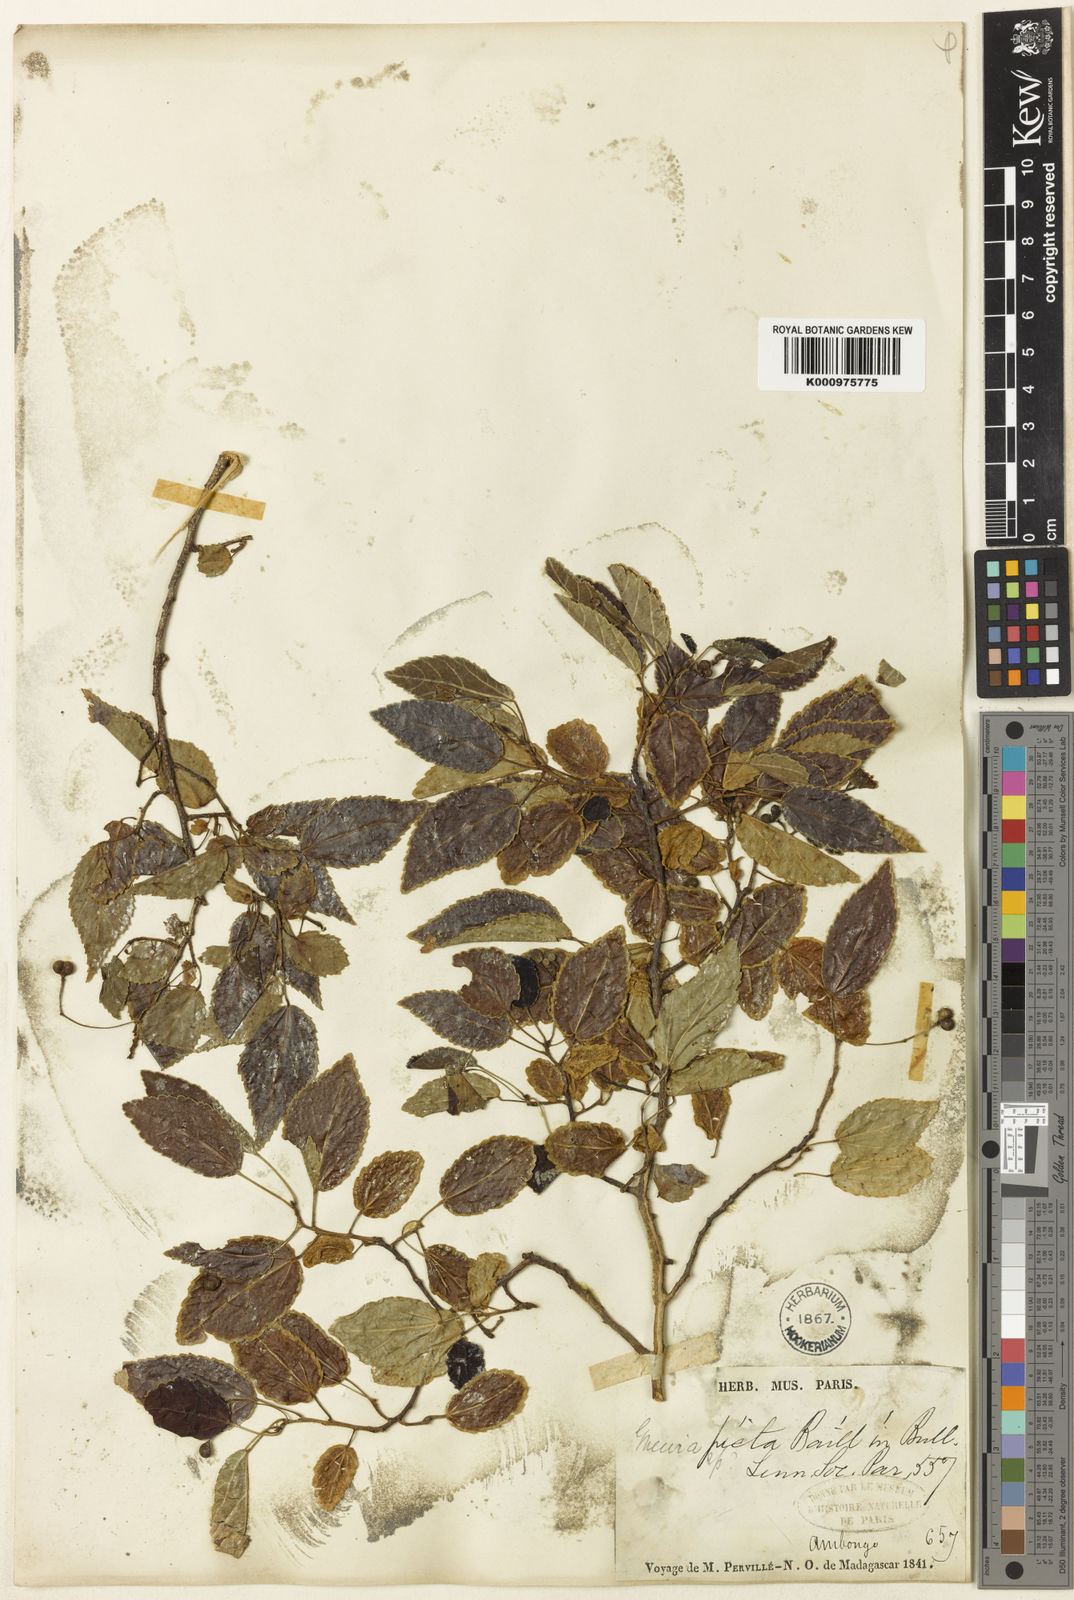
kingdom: Plantae
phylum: Tracheophyta
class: Magnoliopsida
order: Malvales
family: Malvaceae
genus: Grewia
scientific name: Grewia picta
